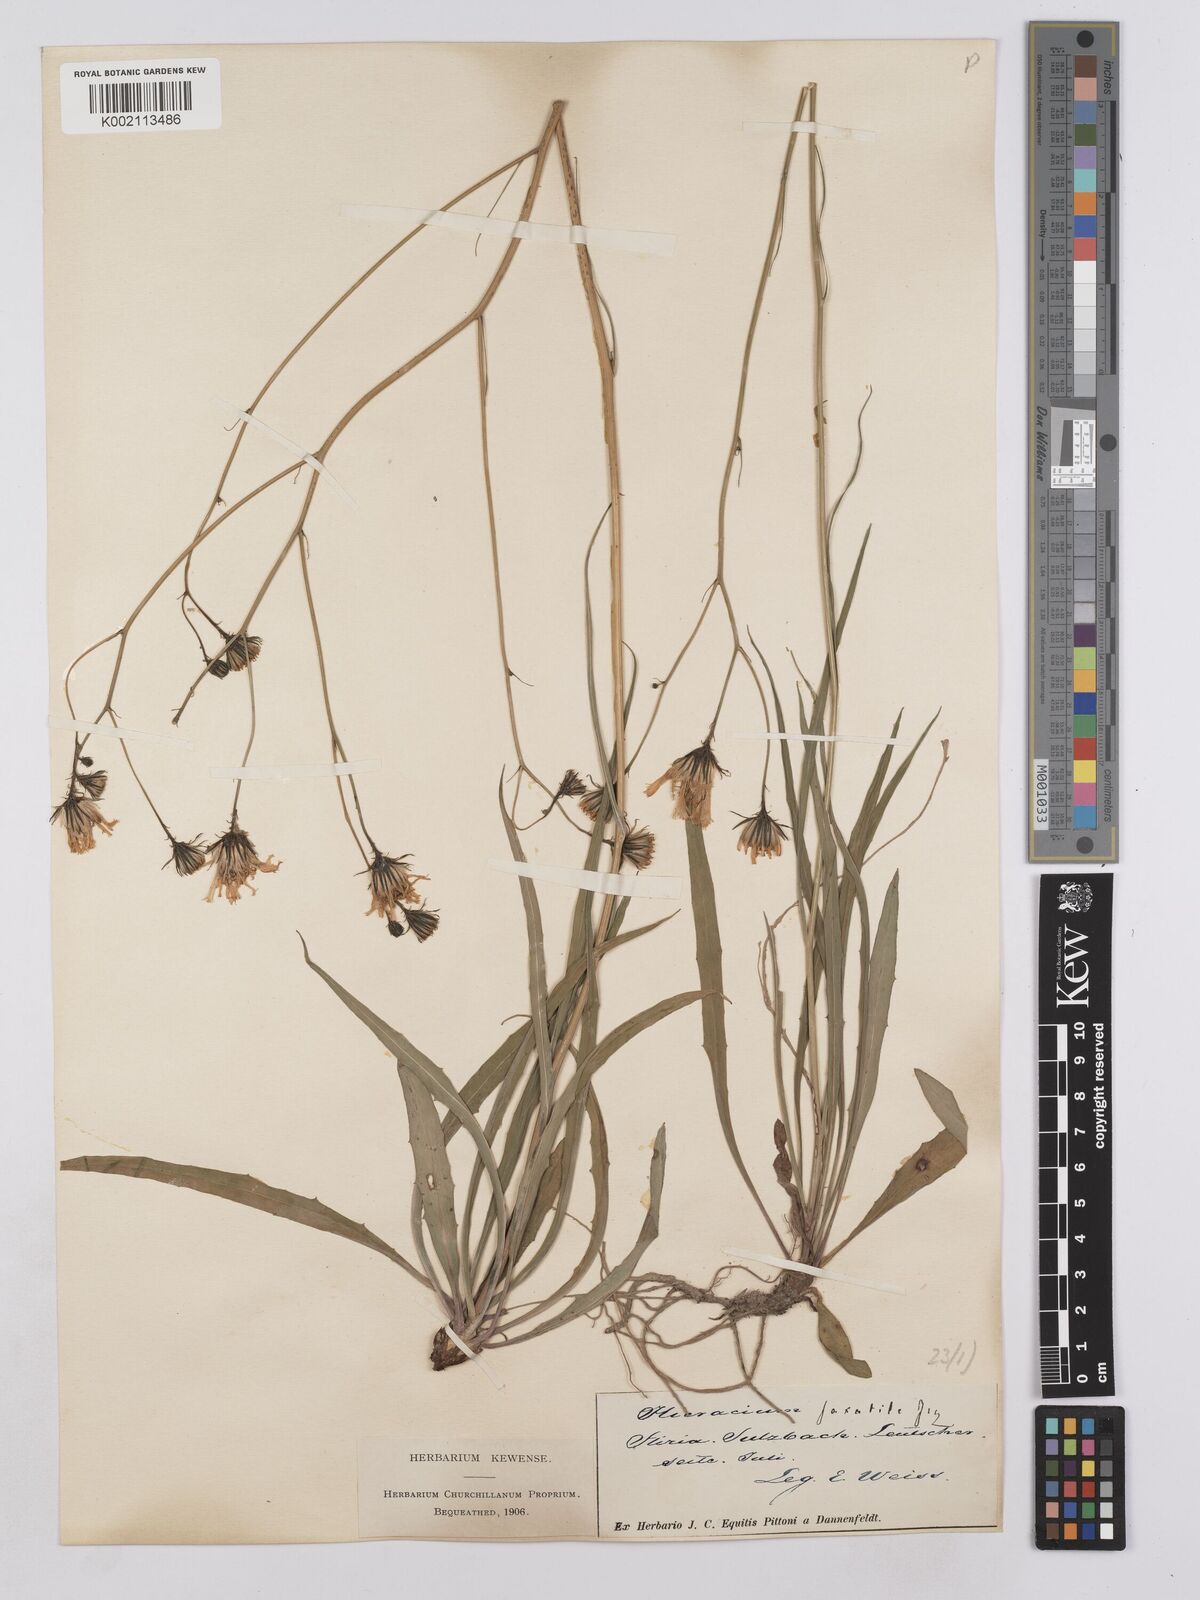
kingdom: Plantae
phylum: Tracheophyta
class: Magnoliopsida
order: Asterales
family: Asteraceae
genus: Hieracium
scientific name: Hieracium saxatile
